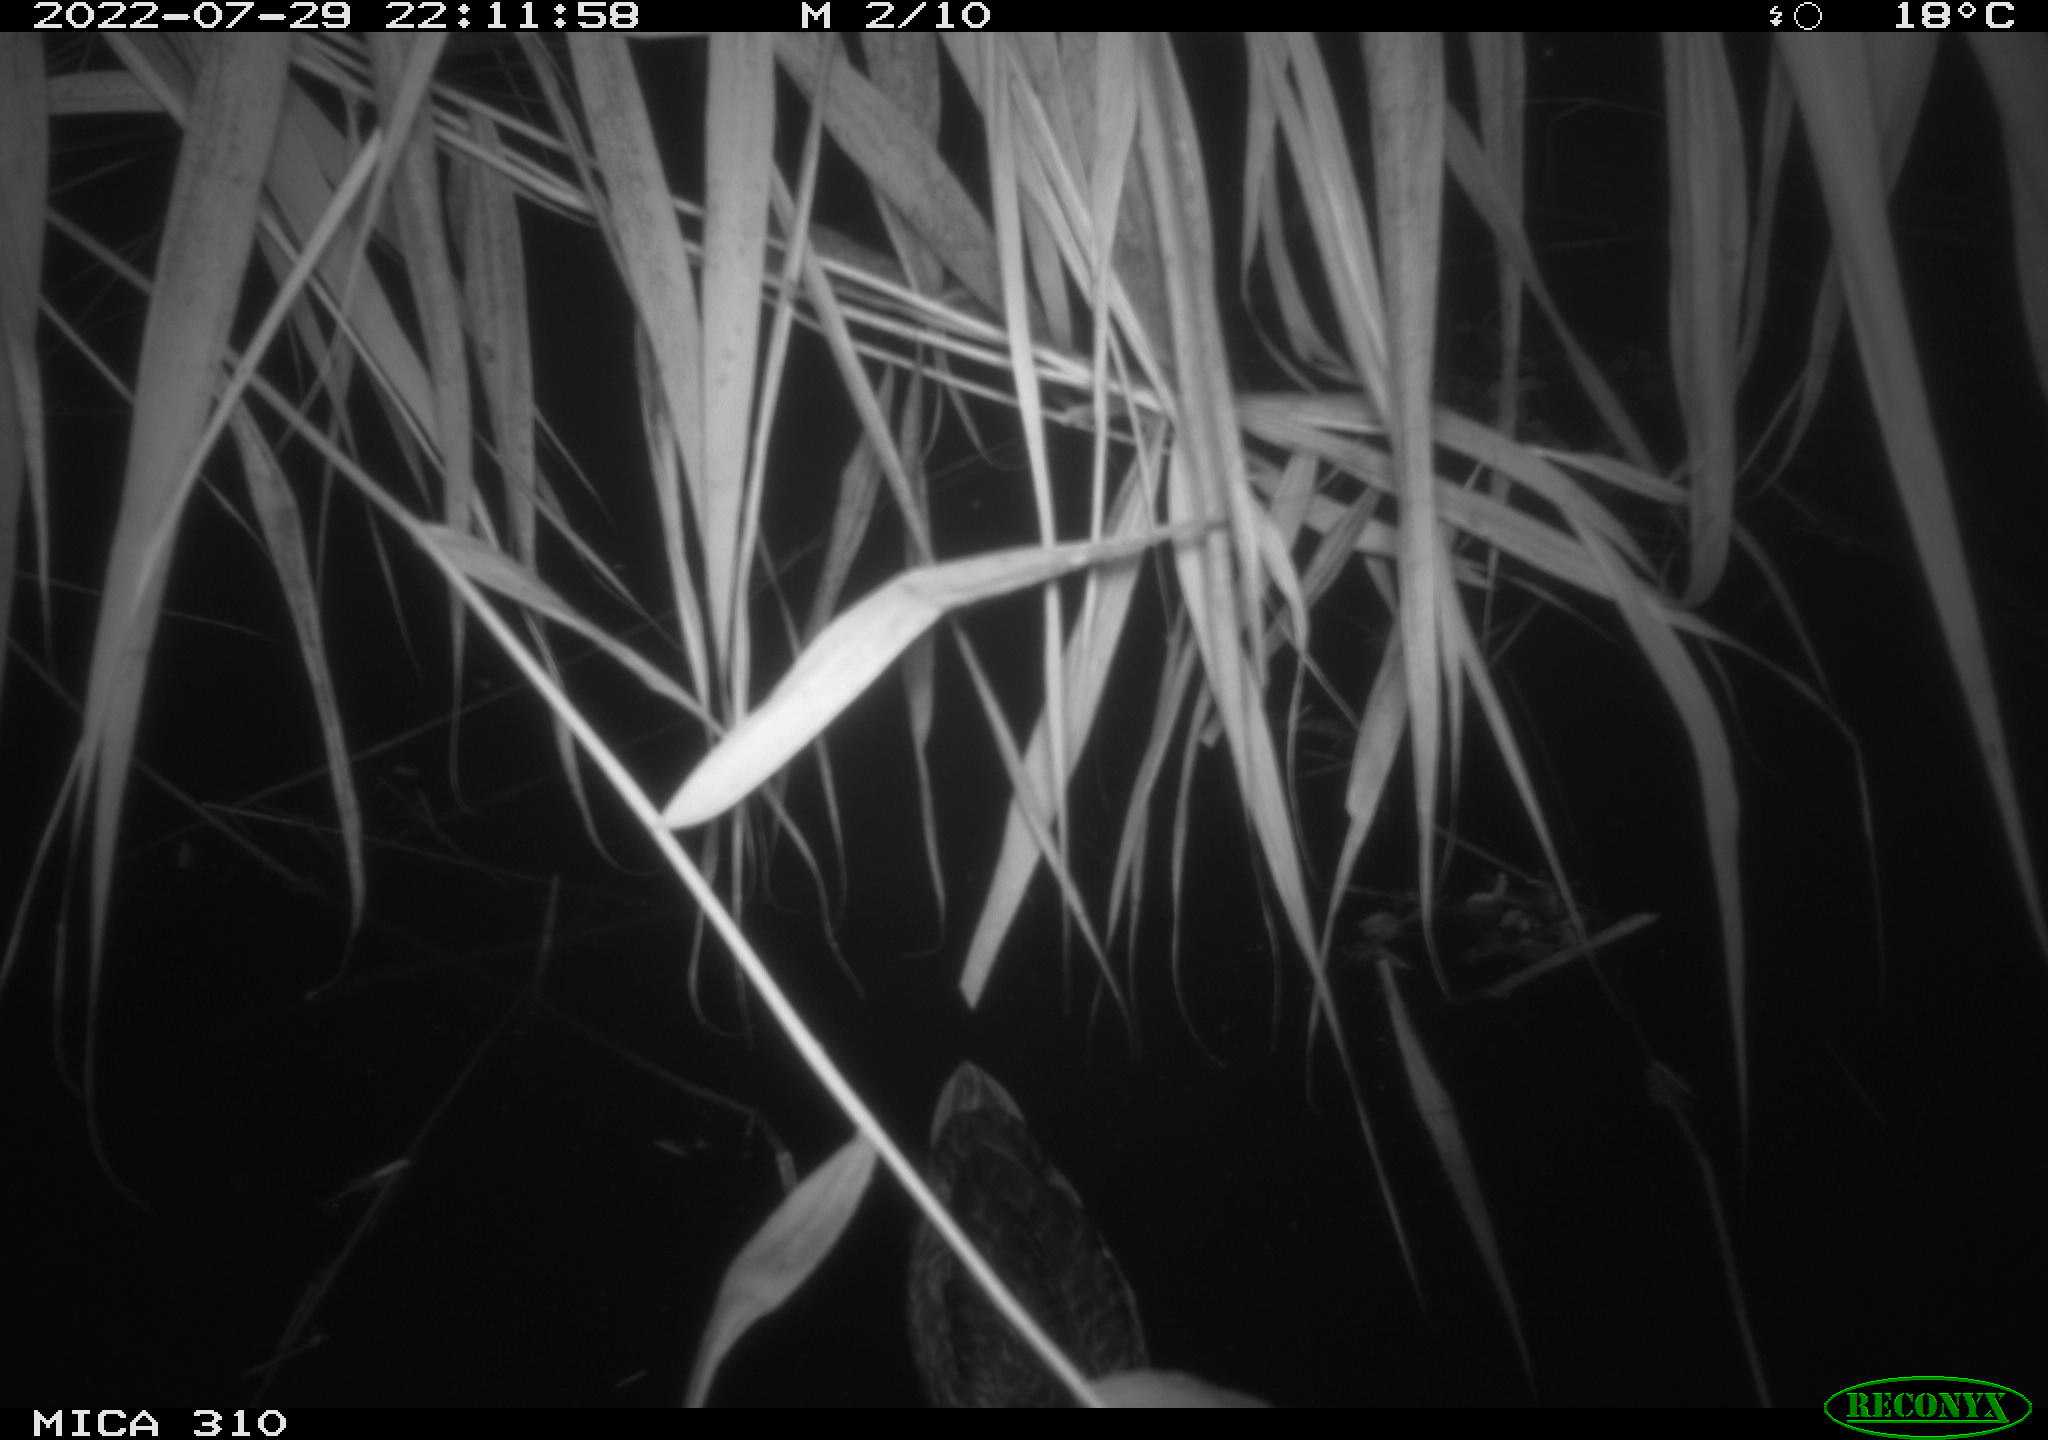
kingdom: Animalia
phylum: Chordata
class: Aves
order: Anseriformes
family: Anatidae
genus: Anas
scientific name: Anas platyrhynchos
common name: Mallard
